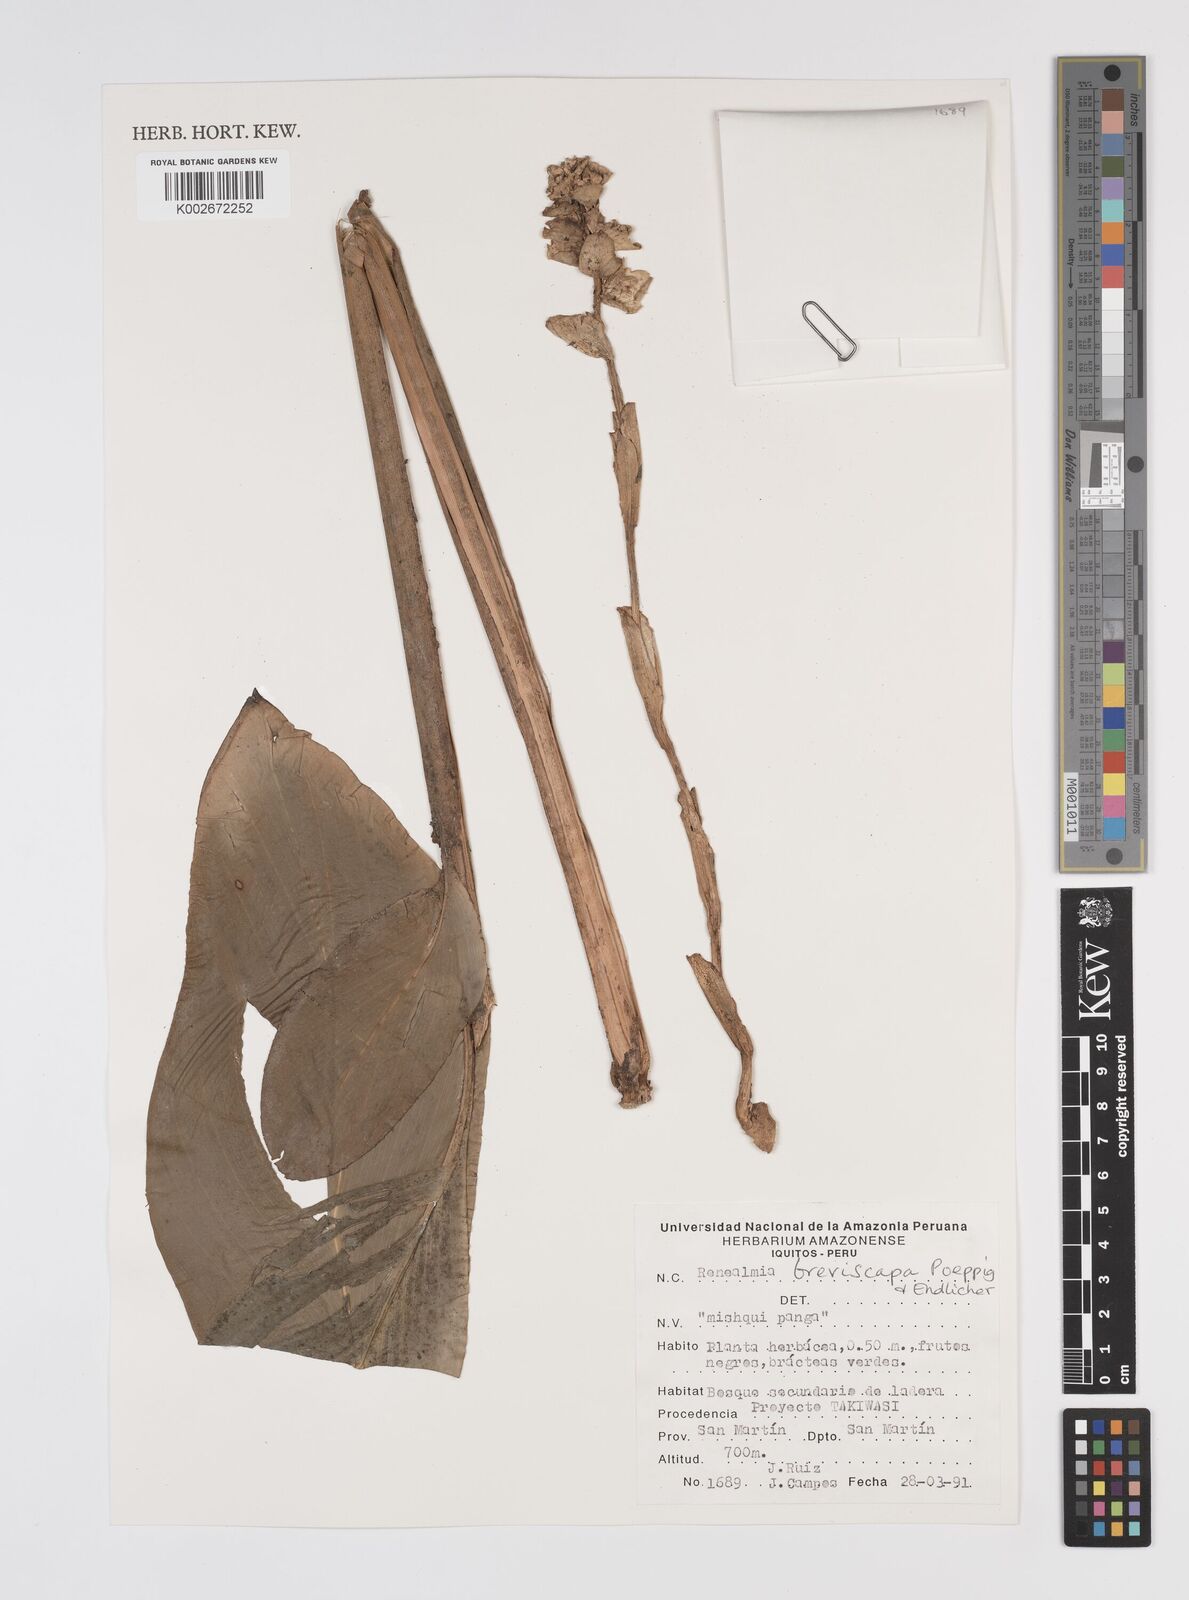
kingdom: Plantae
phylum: Tracheophyta
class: Liliopsida
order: Zingiberales
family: Zingiberaceae
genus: Renealmia
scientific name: Renealmia breviscapa
